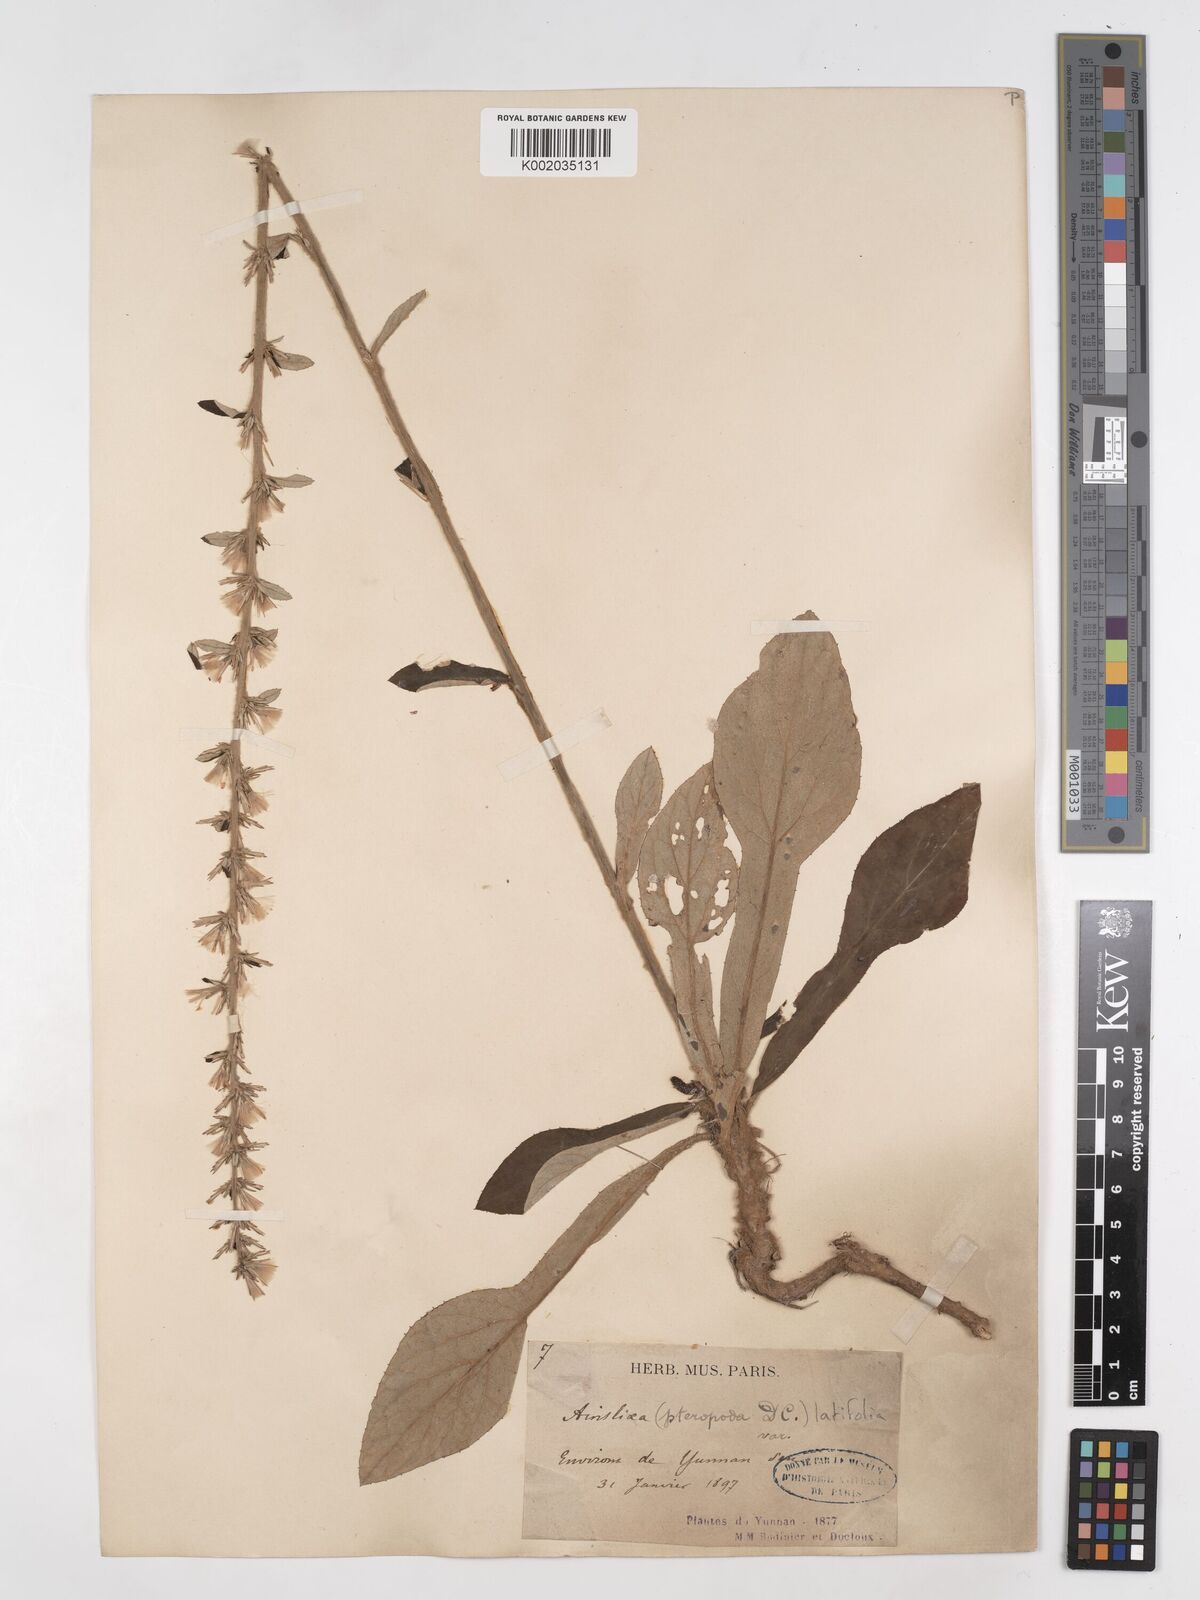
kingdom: Plantae
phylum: Tracheophyta
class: Magnoliopsida
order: Asterales
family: Asteraceae
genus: Ainsliaea
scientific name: Ainsliaea latifolia
